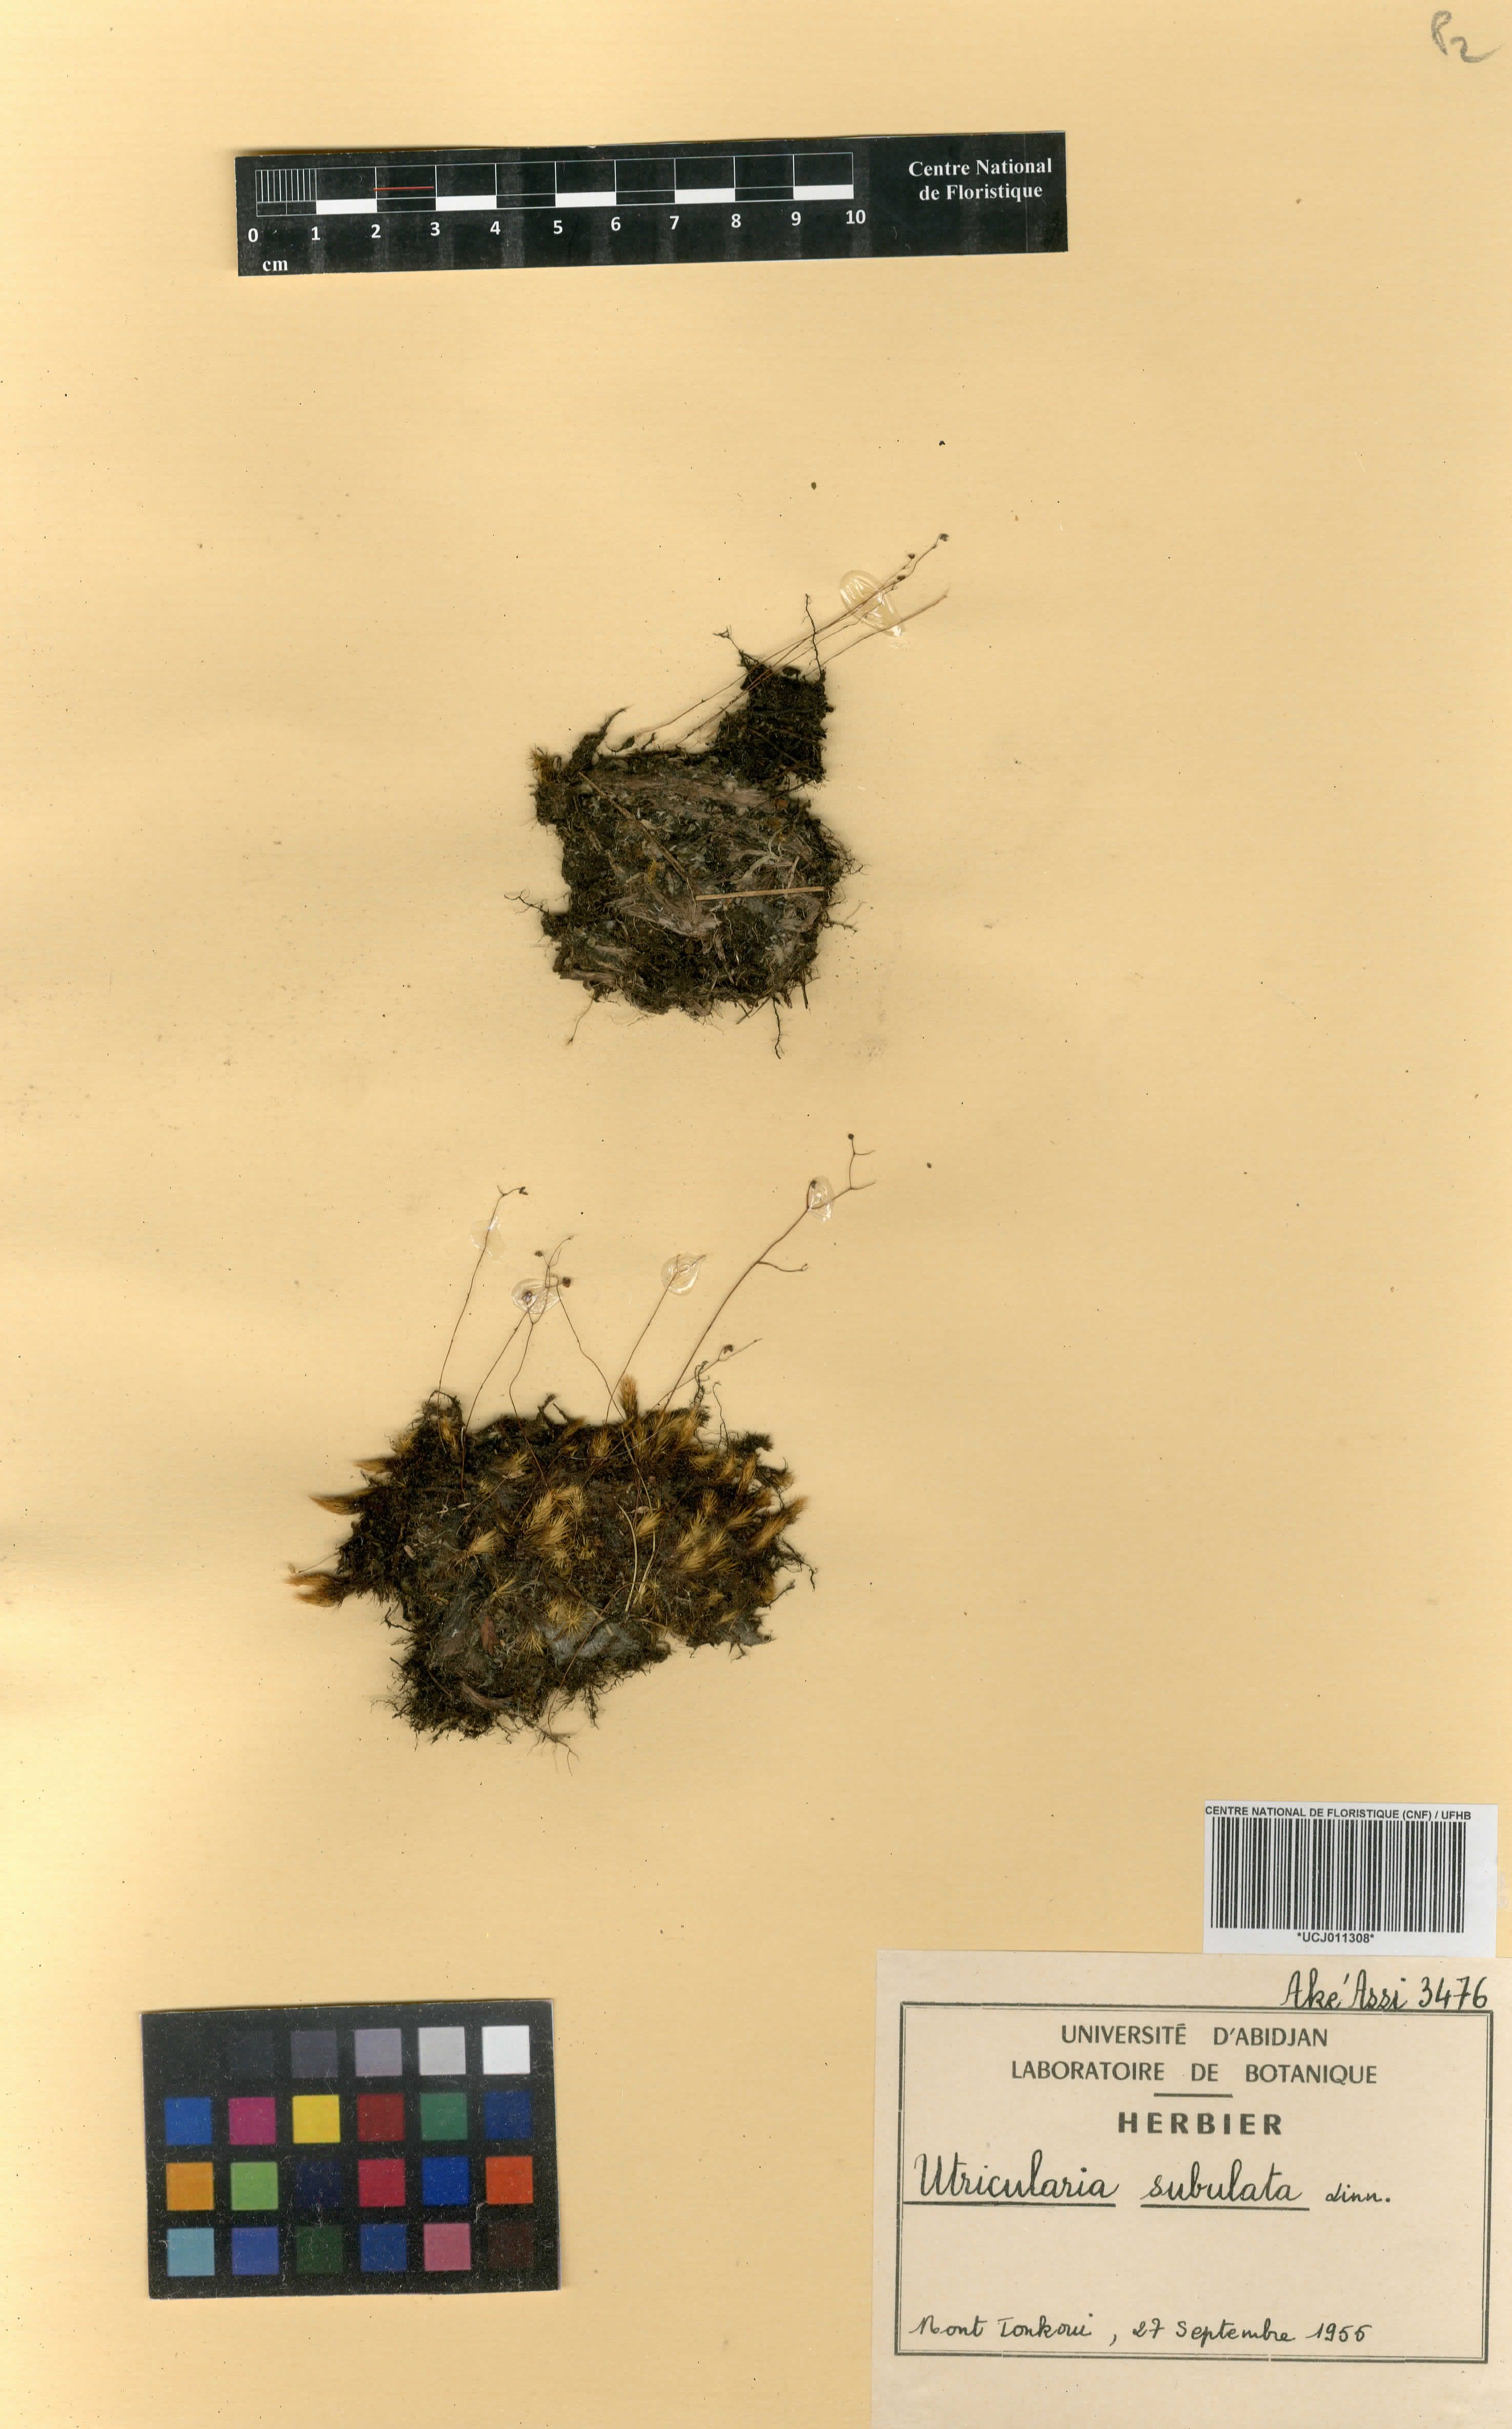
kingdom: Plantae
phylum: Tracheophyta
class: Magnoliopsida
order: Lamiales
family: Lentibulariaceae
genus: Utricularia
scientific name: Utricularia subulata
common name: Tiny bladderwort
